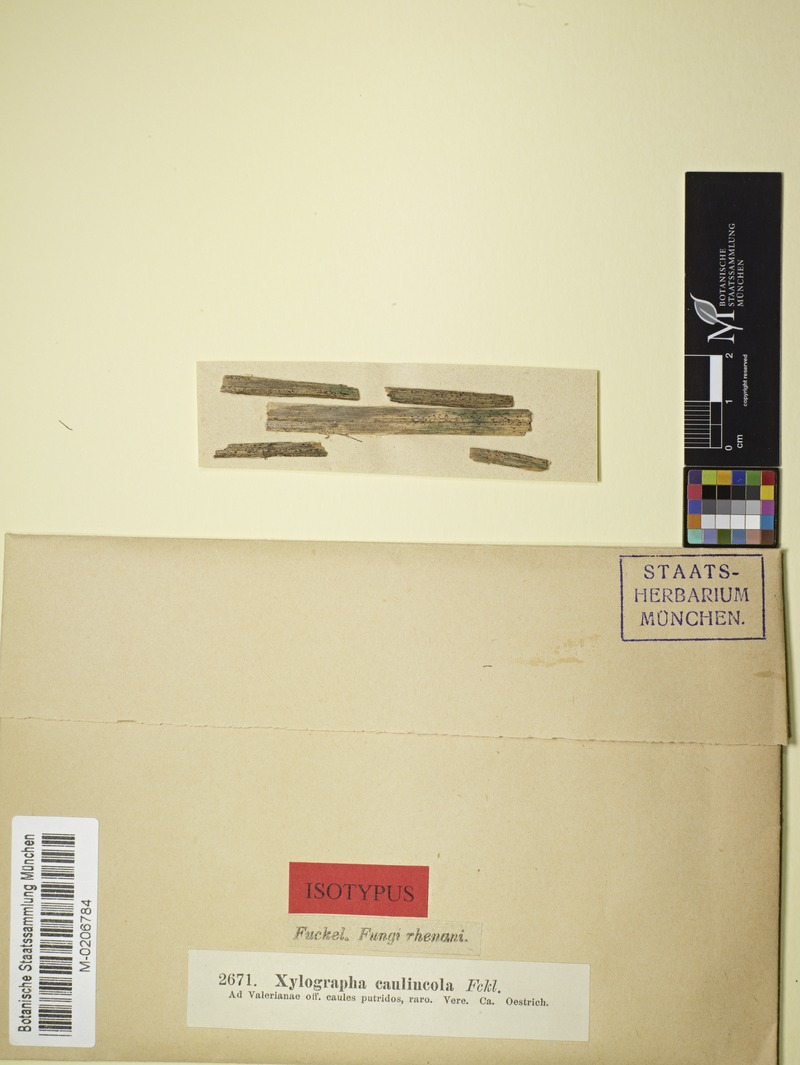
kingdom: Plantae
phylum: Tracheophyta
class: Magnoliopsida
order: Dipsacales
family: Caprifoliaceae
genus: Valeriana
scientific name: Valeriana officinalis
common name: Common valerian
